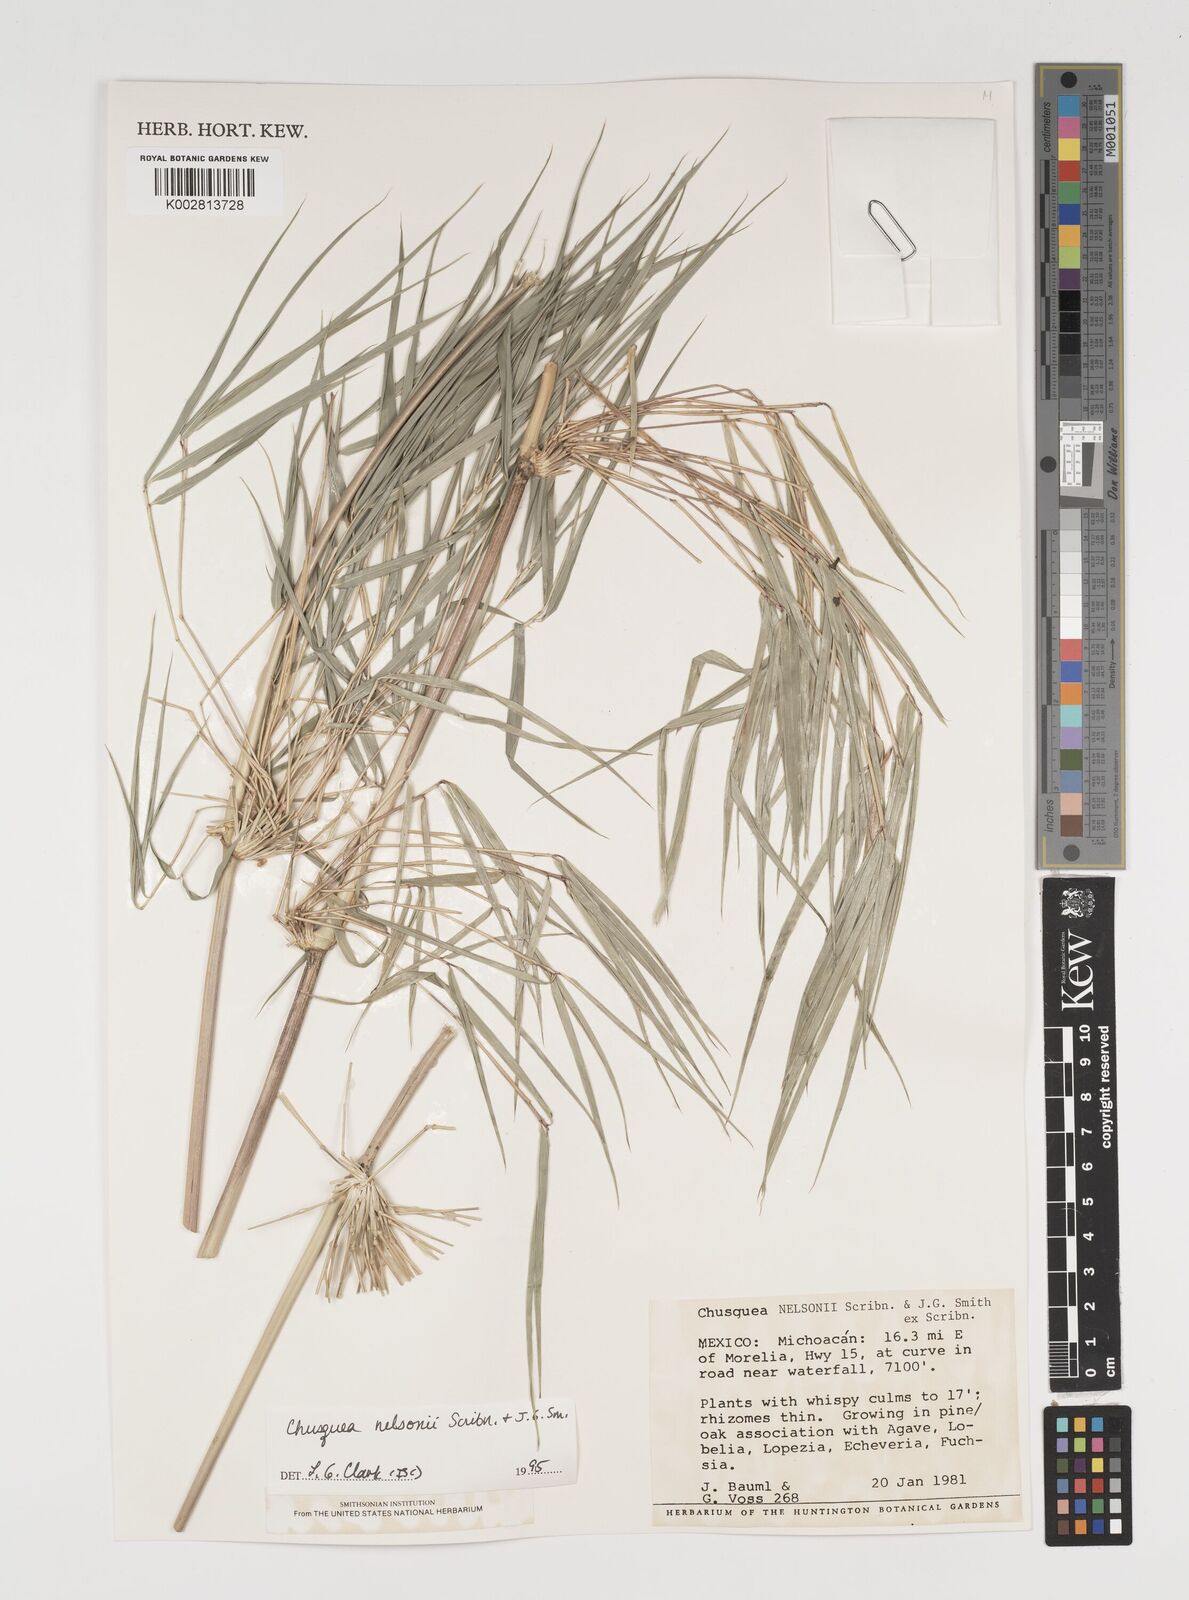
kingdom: Plantae
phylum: Tracheophyta
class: Liliopsida
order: Poales
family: Poaceae
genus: Chusquea
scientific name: Chusquea nelsonii
